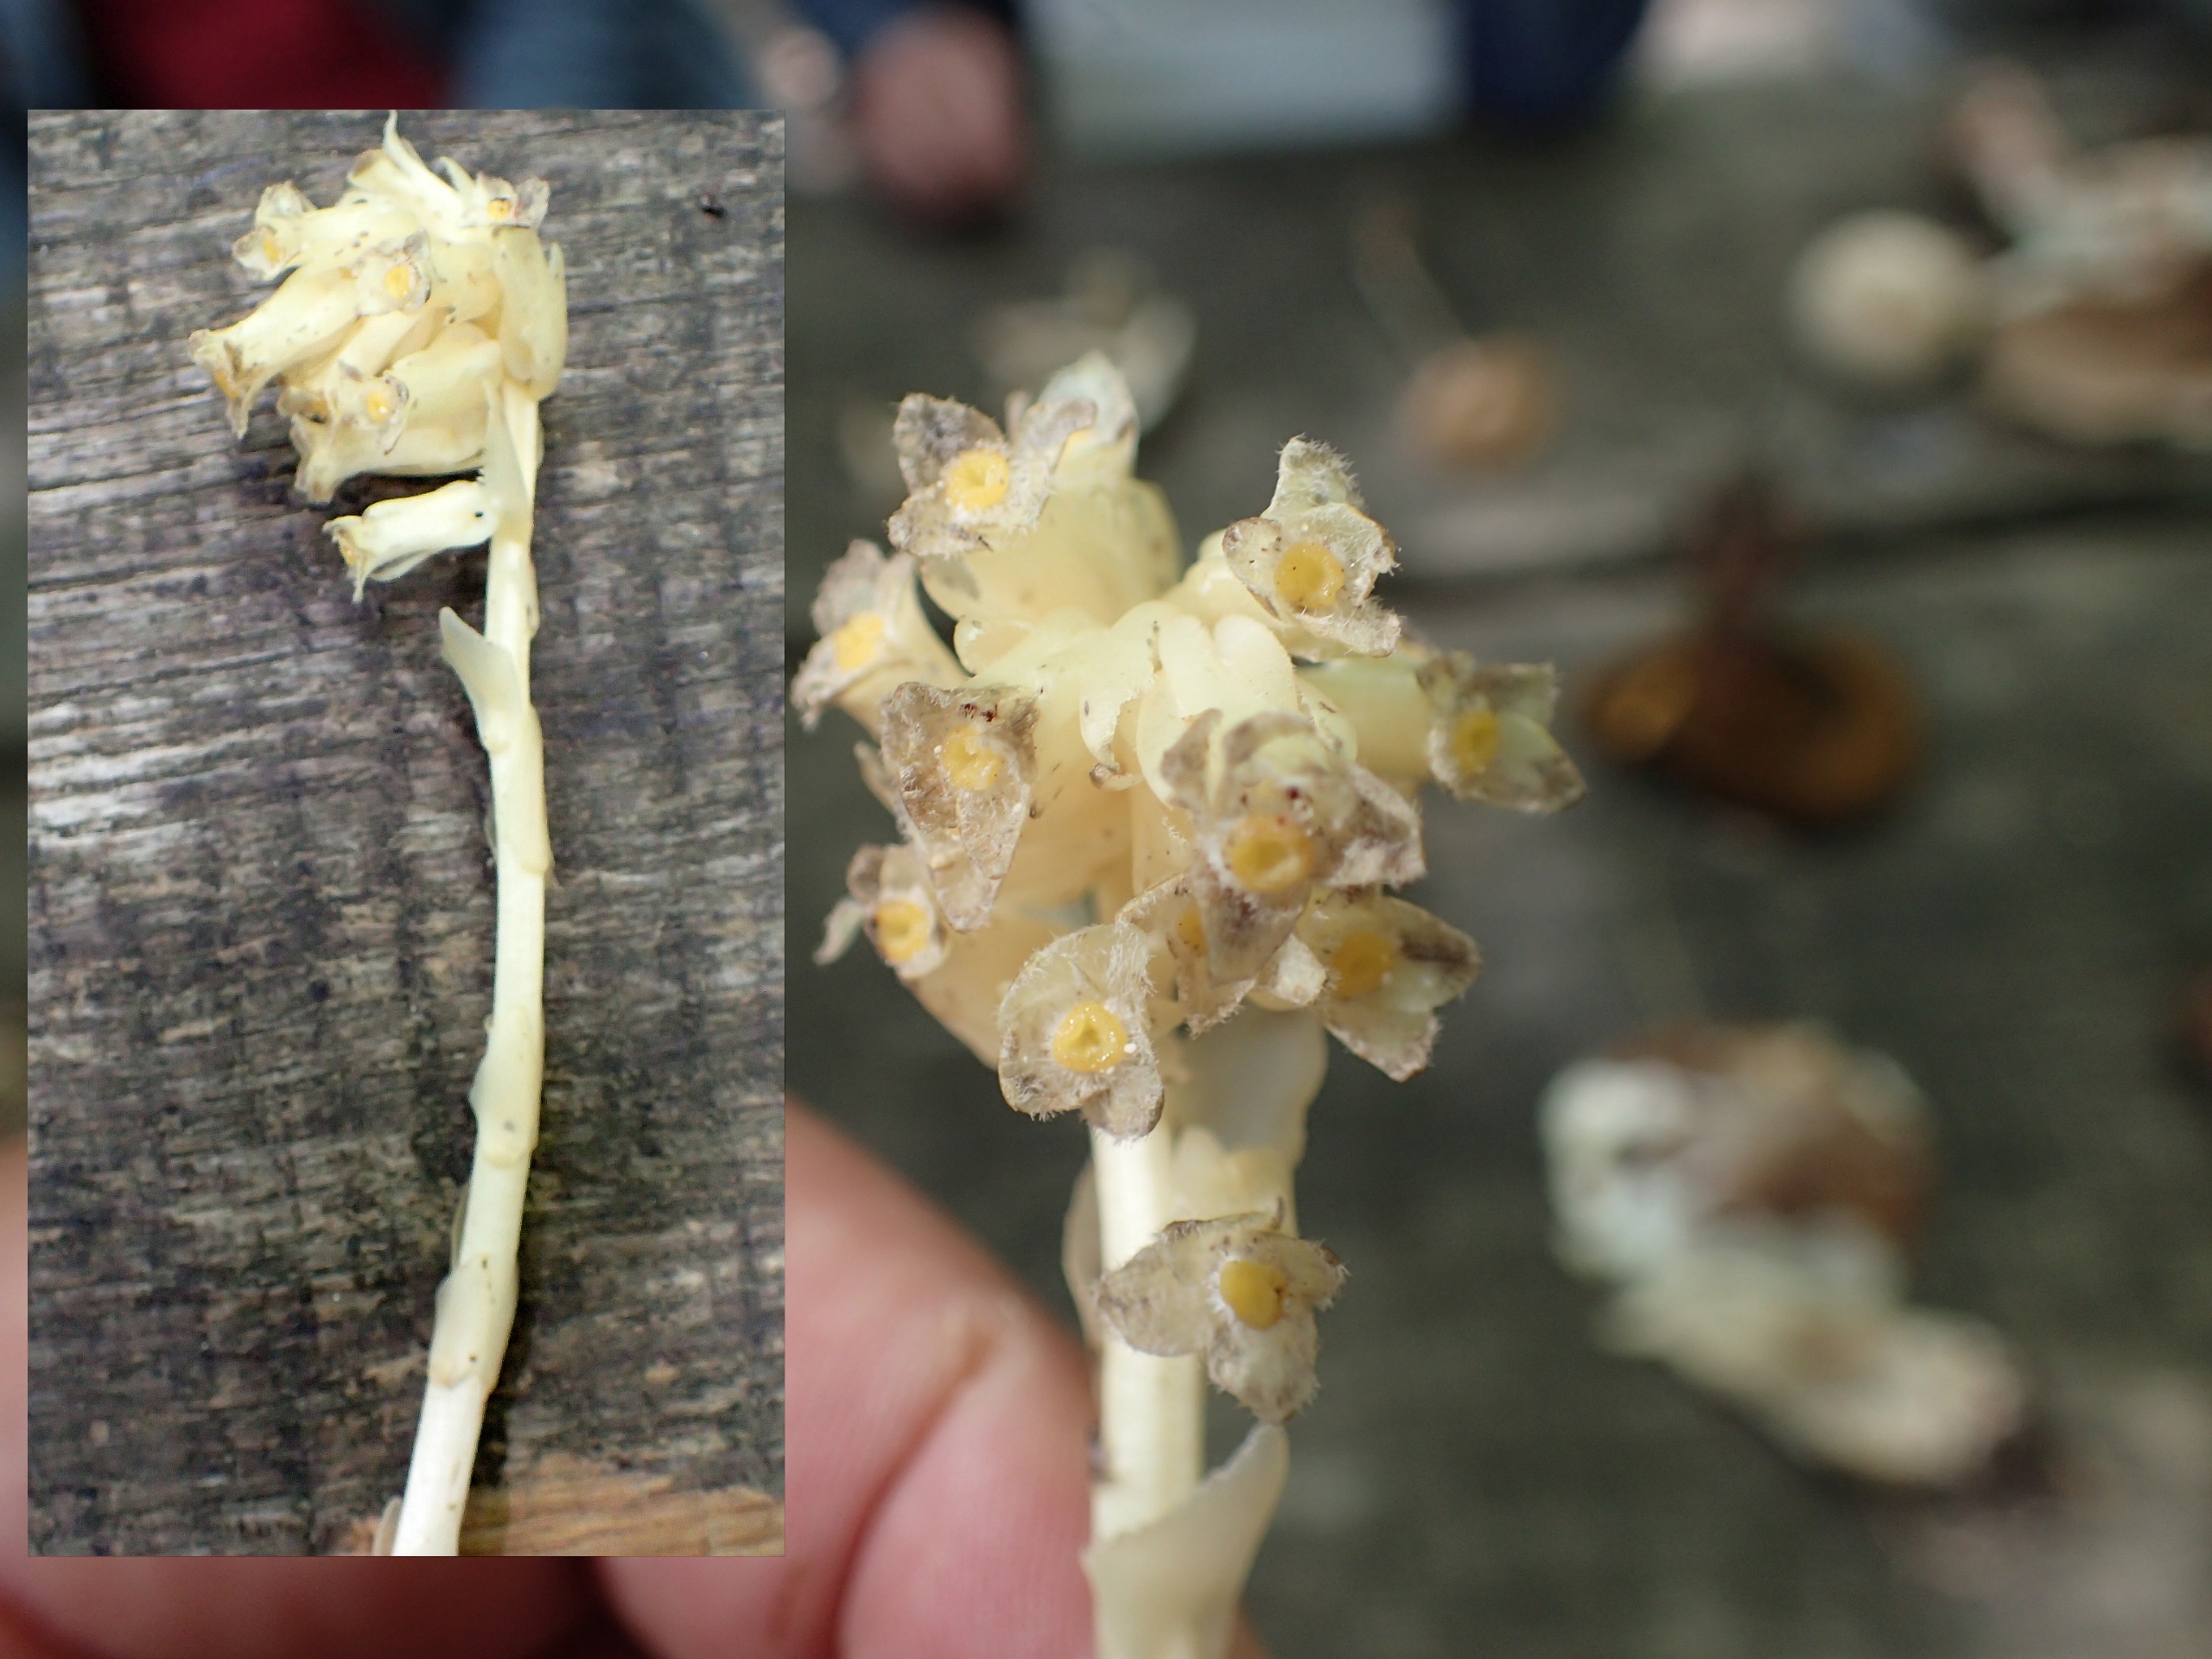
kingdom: Plantae
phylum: Tracheophyta
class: Magnoliopsida
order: Ericales
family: Ericaceae
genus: Hypopitys
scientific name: Hypopitys monotropa
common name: Snylterod
